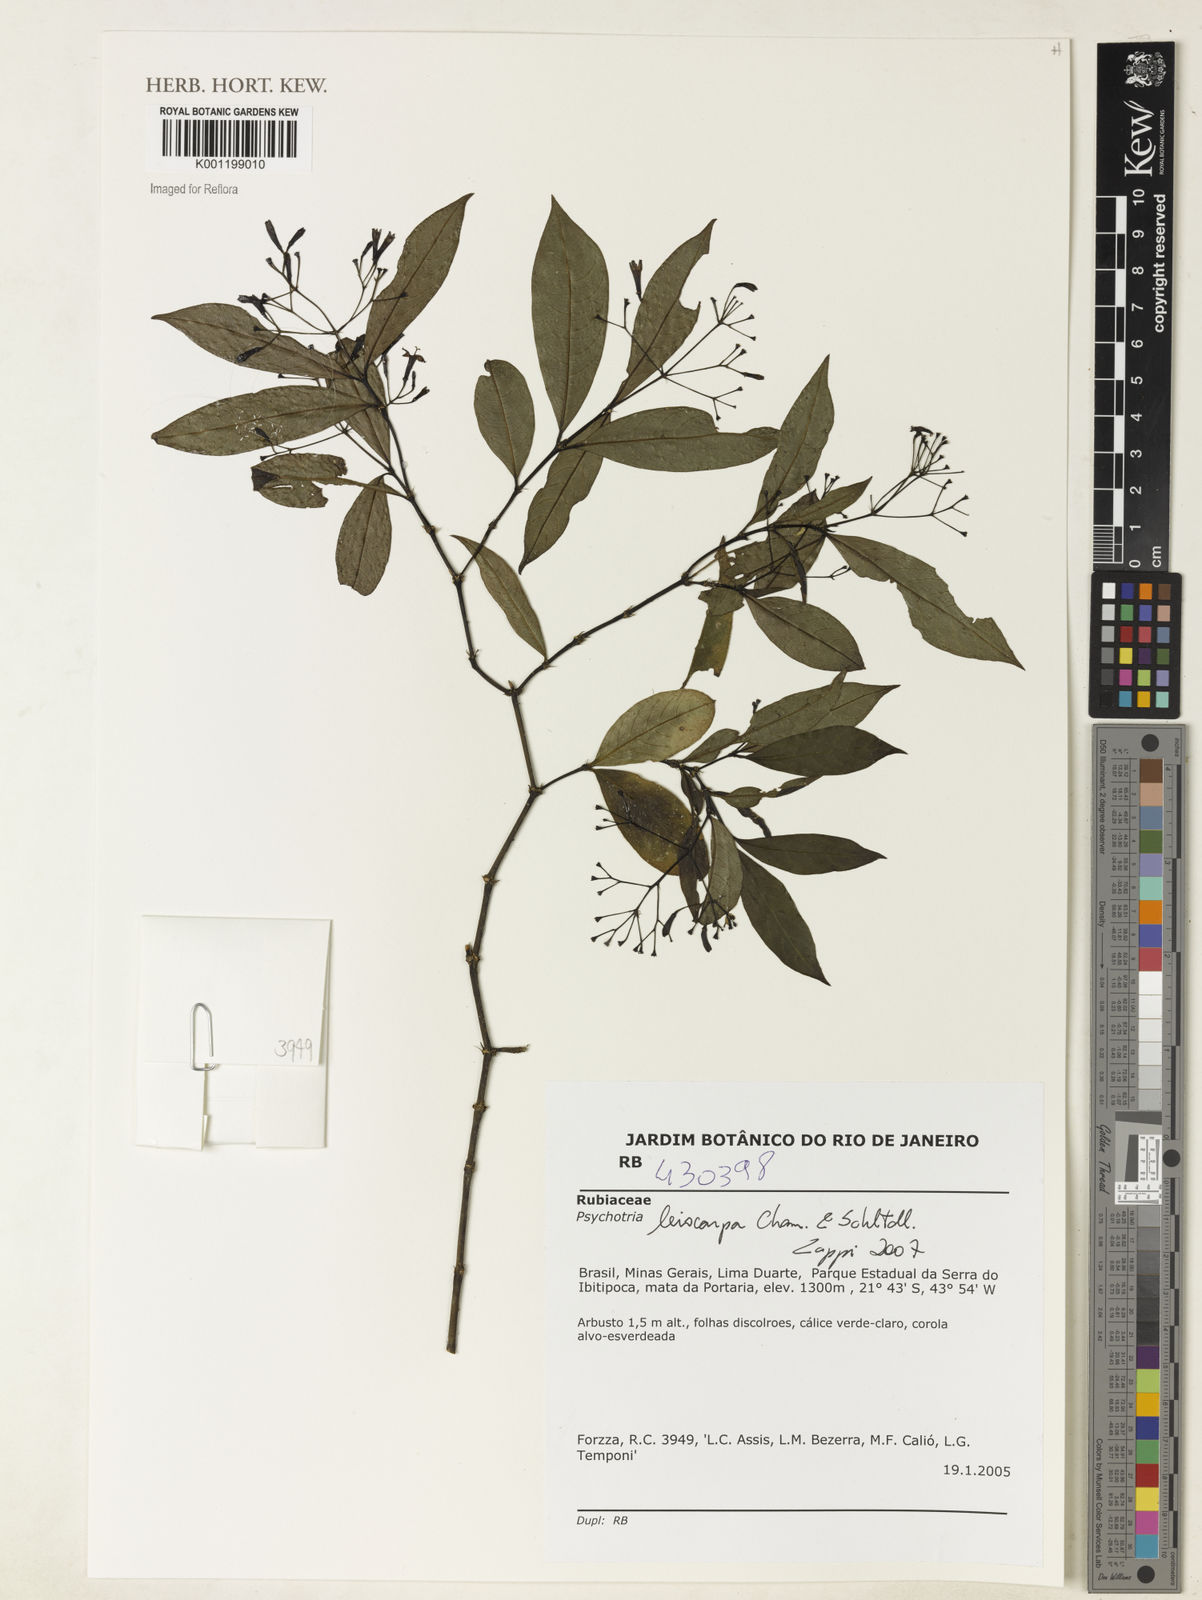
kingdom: Plantae
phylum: Tracheophyta
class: Magnoliopsida
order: Gentianales
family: Rubiaceae
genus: Psychotria
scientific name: Psychotria leiocarpa
